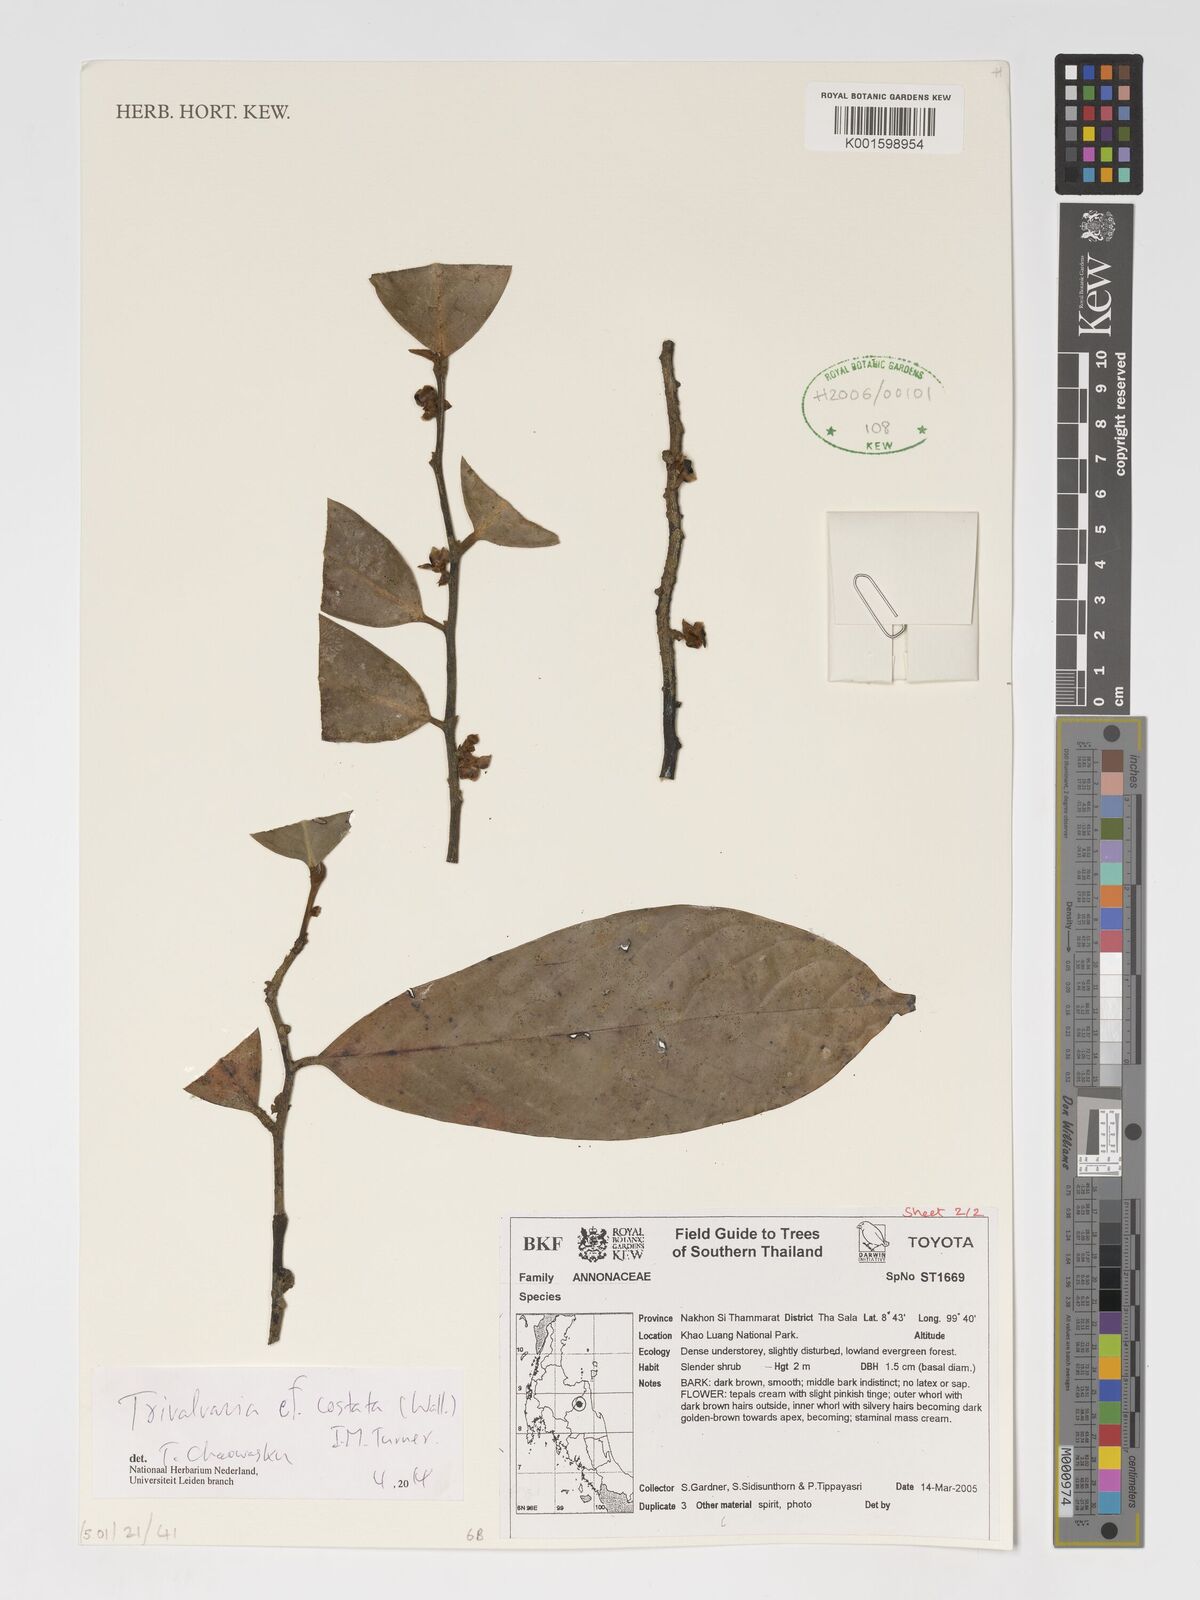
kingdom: Plantae
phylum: Tracheophyta
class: Magnoliopsida
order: Magnoliales
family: Annonaceae
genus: Trivalvaria
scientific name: Trivalvaria costata
